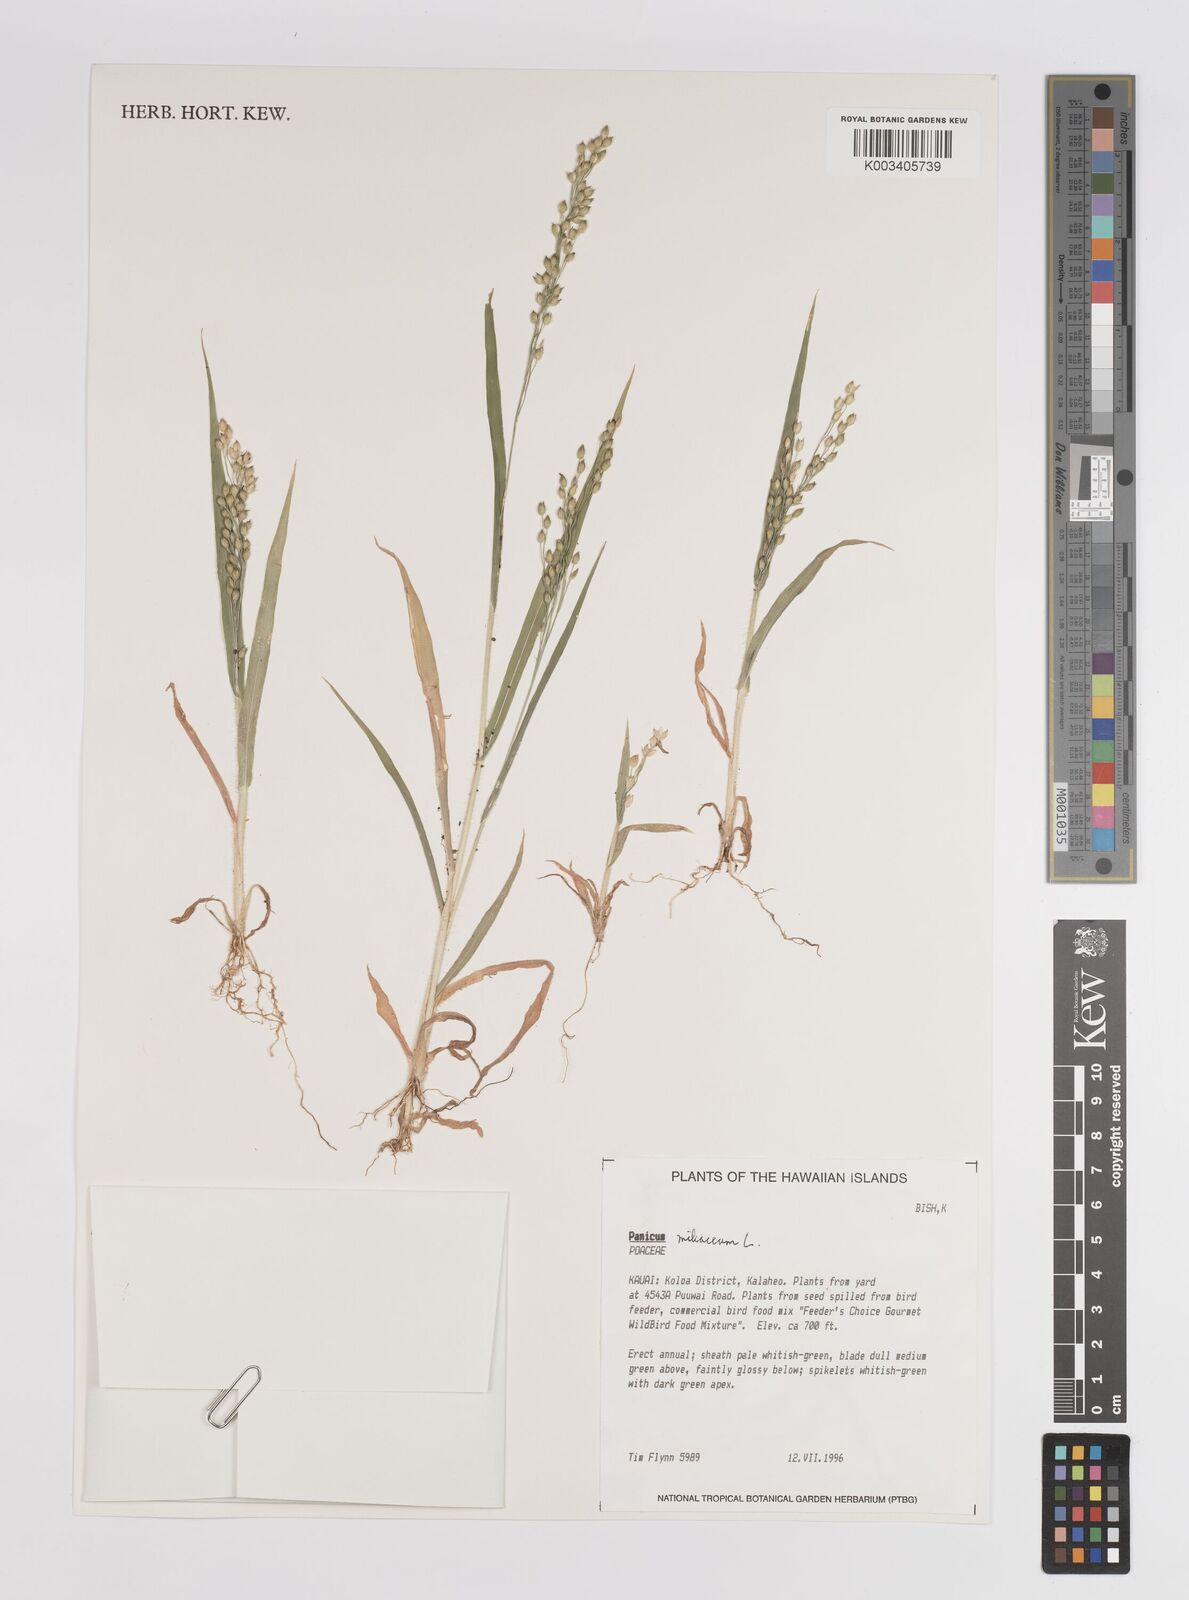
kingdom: Plantae
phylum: Tracheophyta
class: Liliopsida
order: Poales
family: Poaceae
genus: Panicum
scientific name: Panicum miliaceum
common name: Common millet
